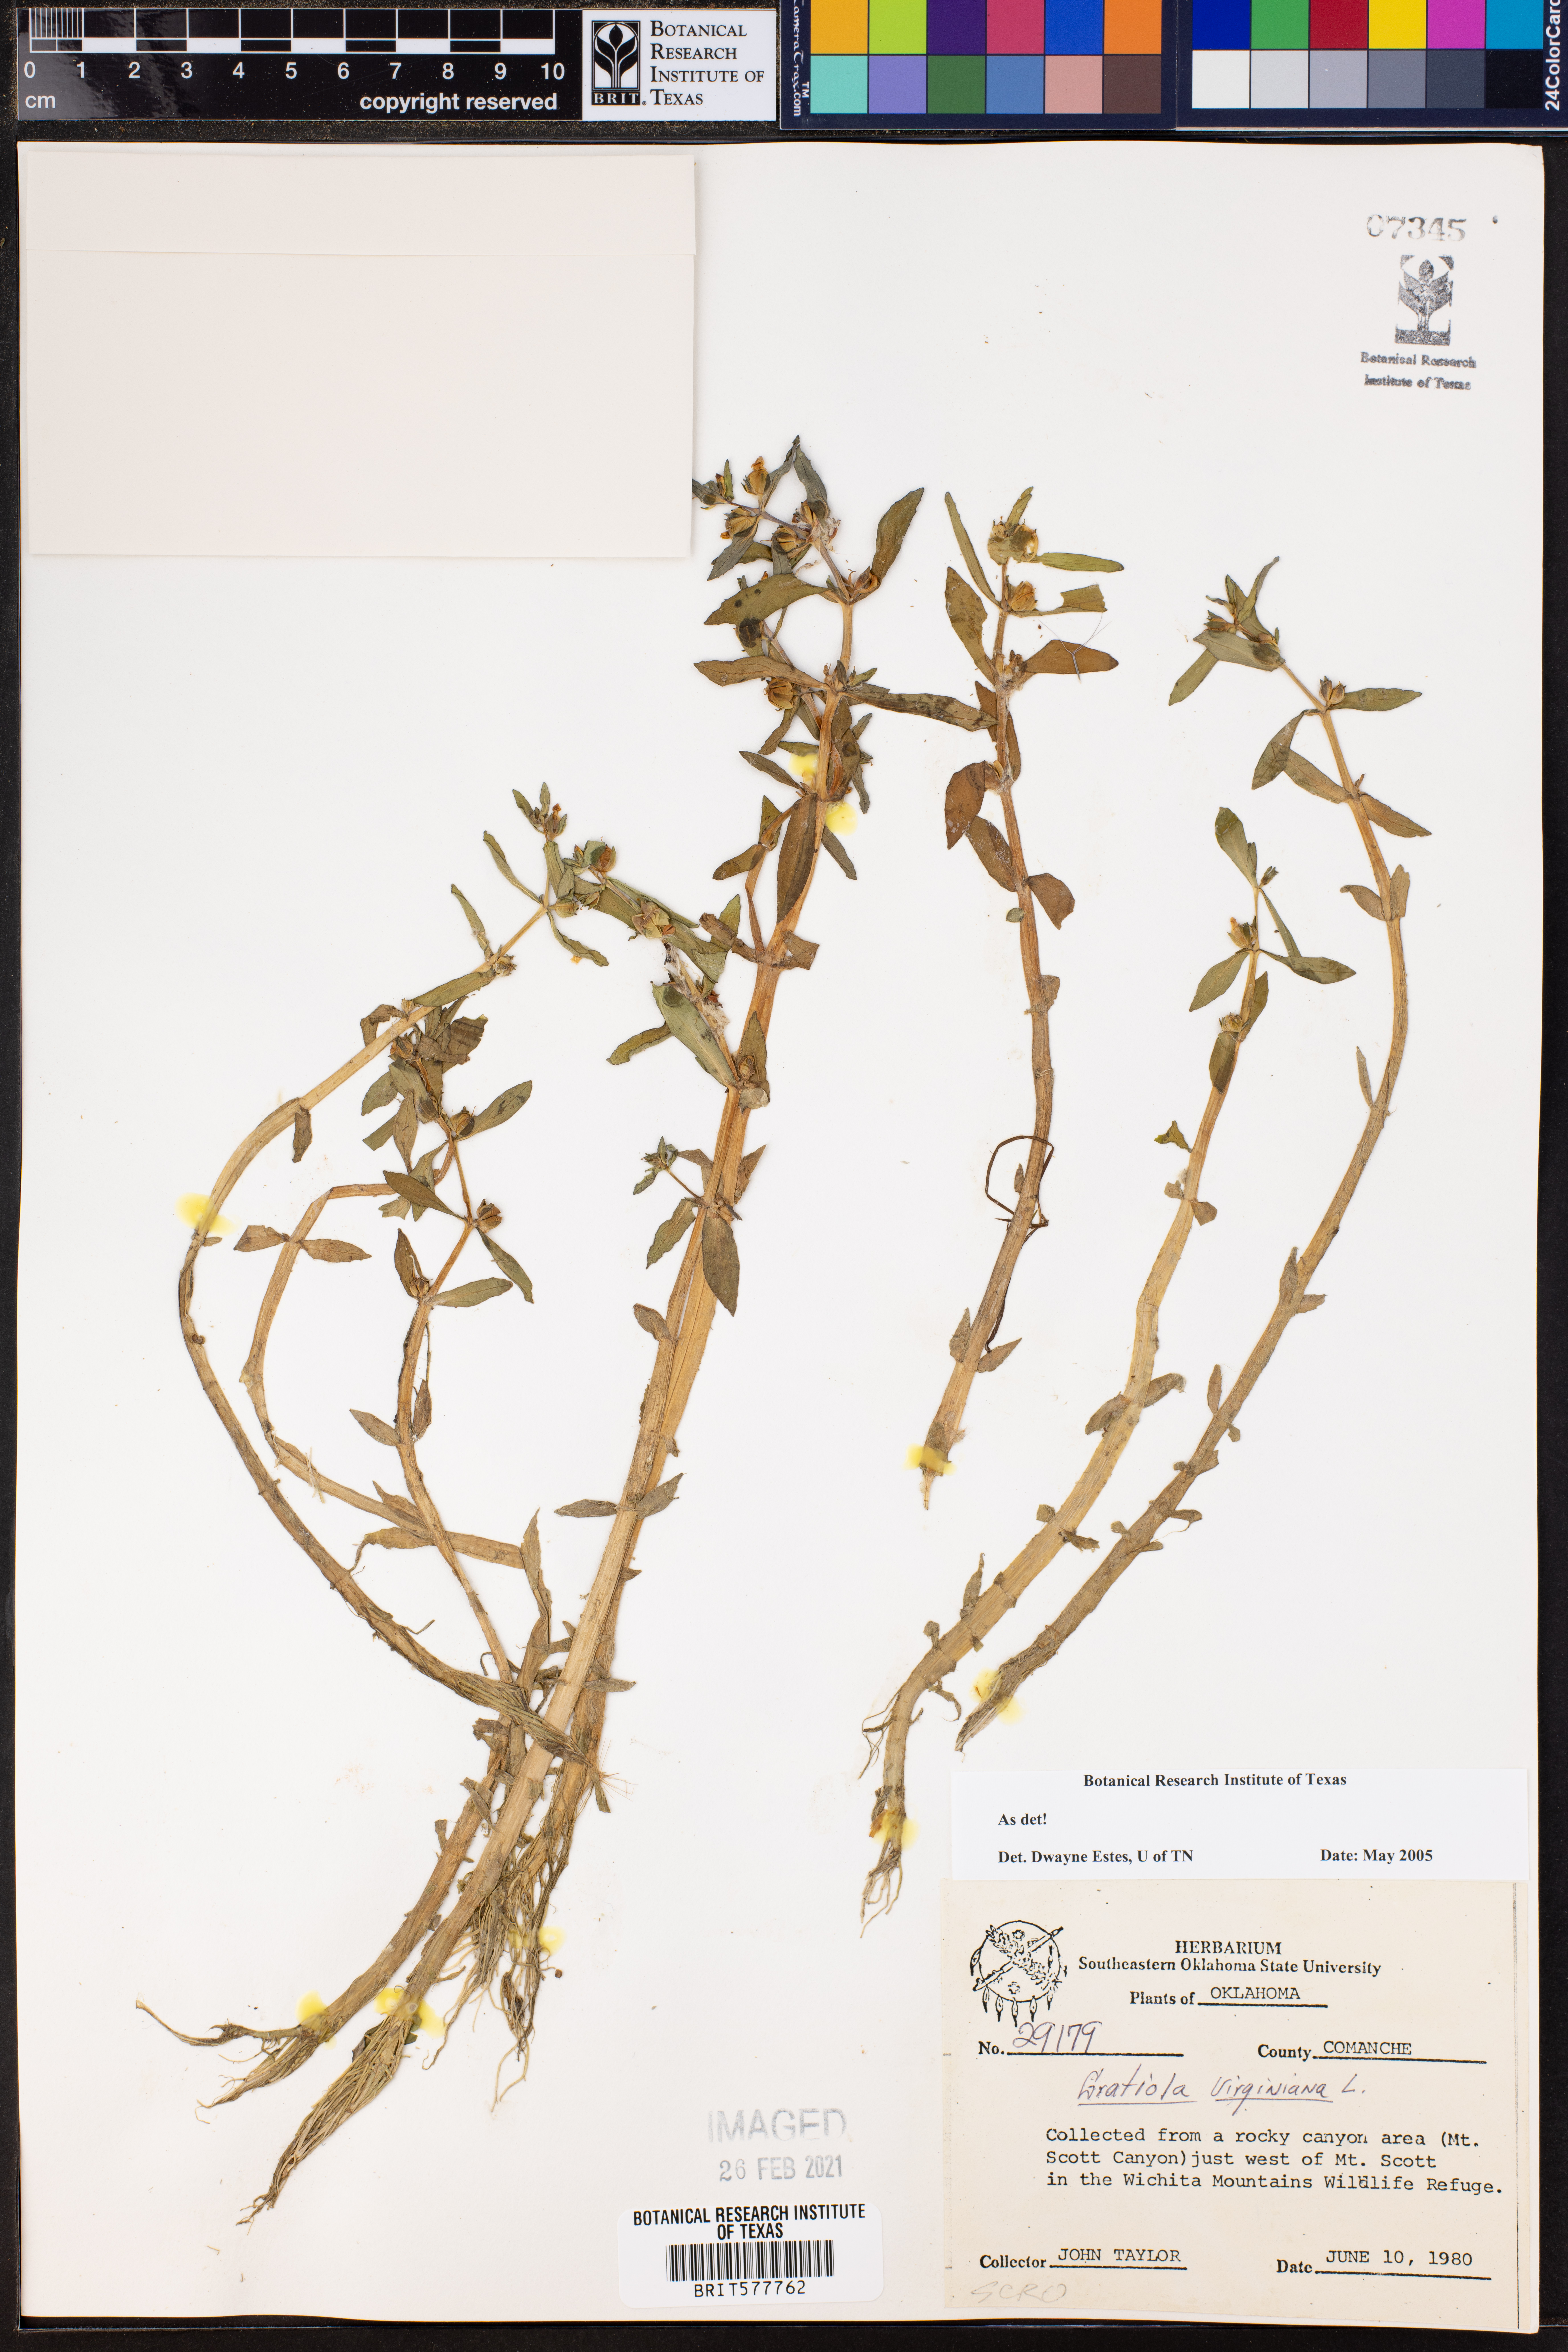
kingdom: Plantae
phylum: Tracheophyta
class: Magnoliopsida
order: Lamiales
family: Plantaginaceae
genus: Gratiola
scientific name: Gratiola virginiana
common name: Roundfruit hedgehyssop
